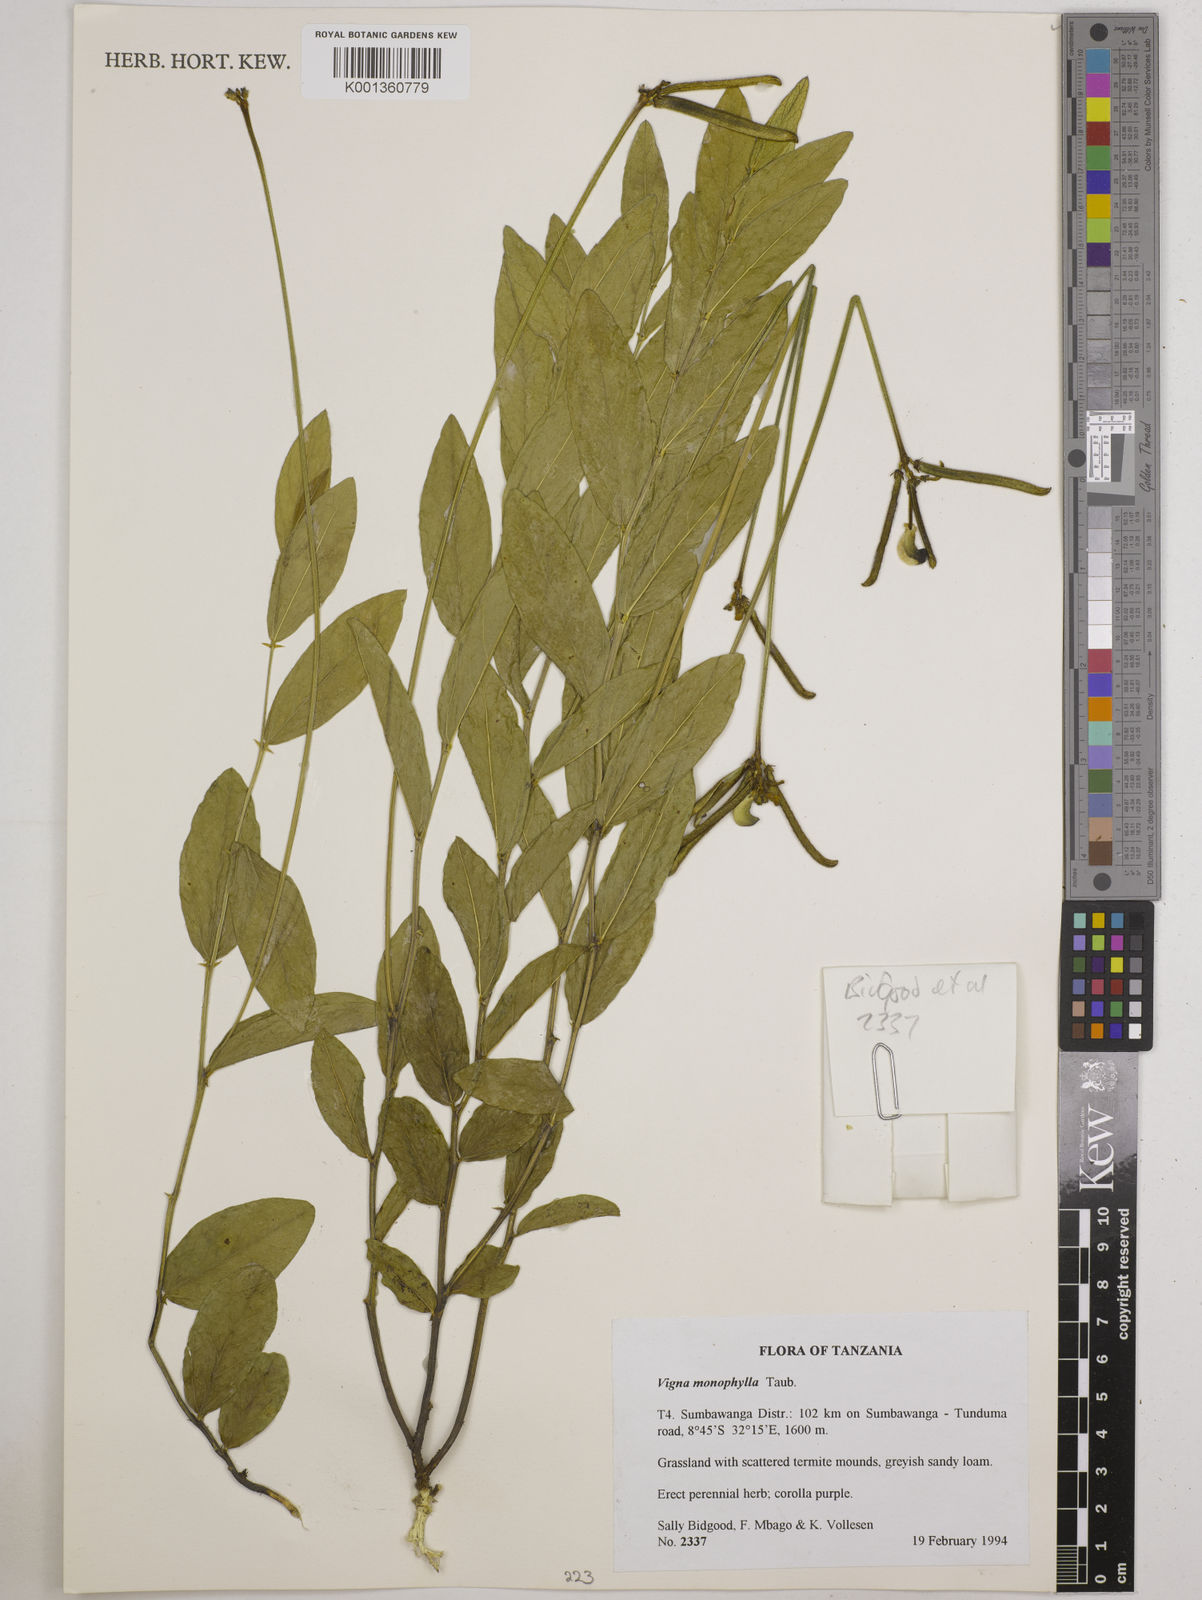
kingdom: Plantae
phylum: Tracheophyta
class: Magnoliopsida
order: Fabales
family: Fabaceae
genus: Vigna
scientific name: Vigna monophylla
